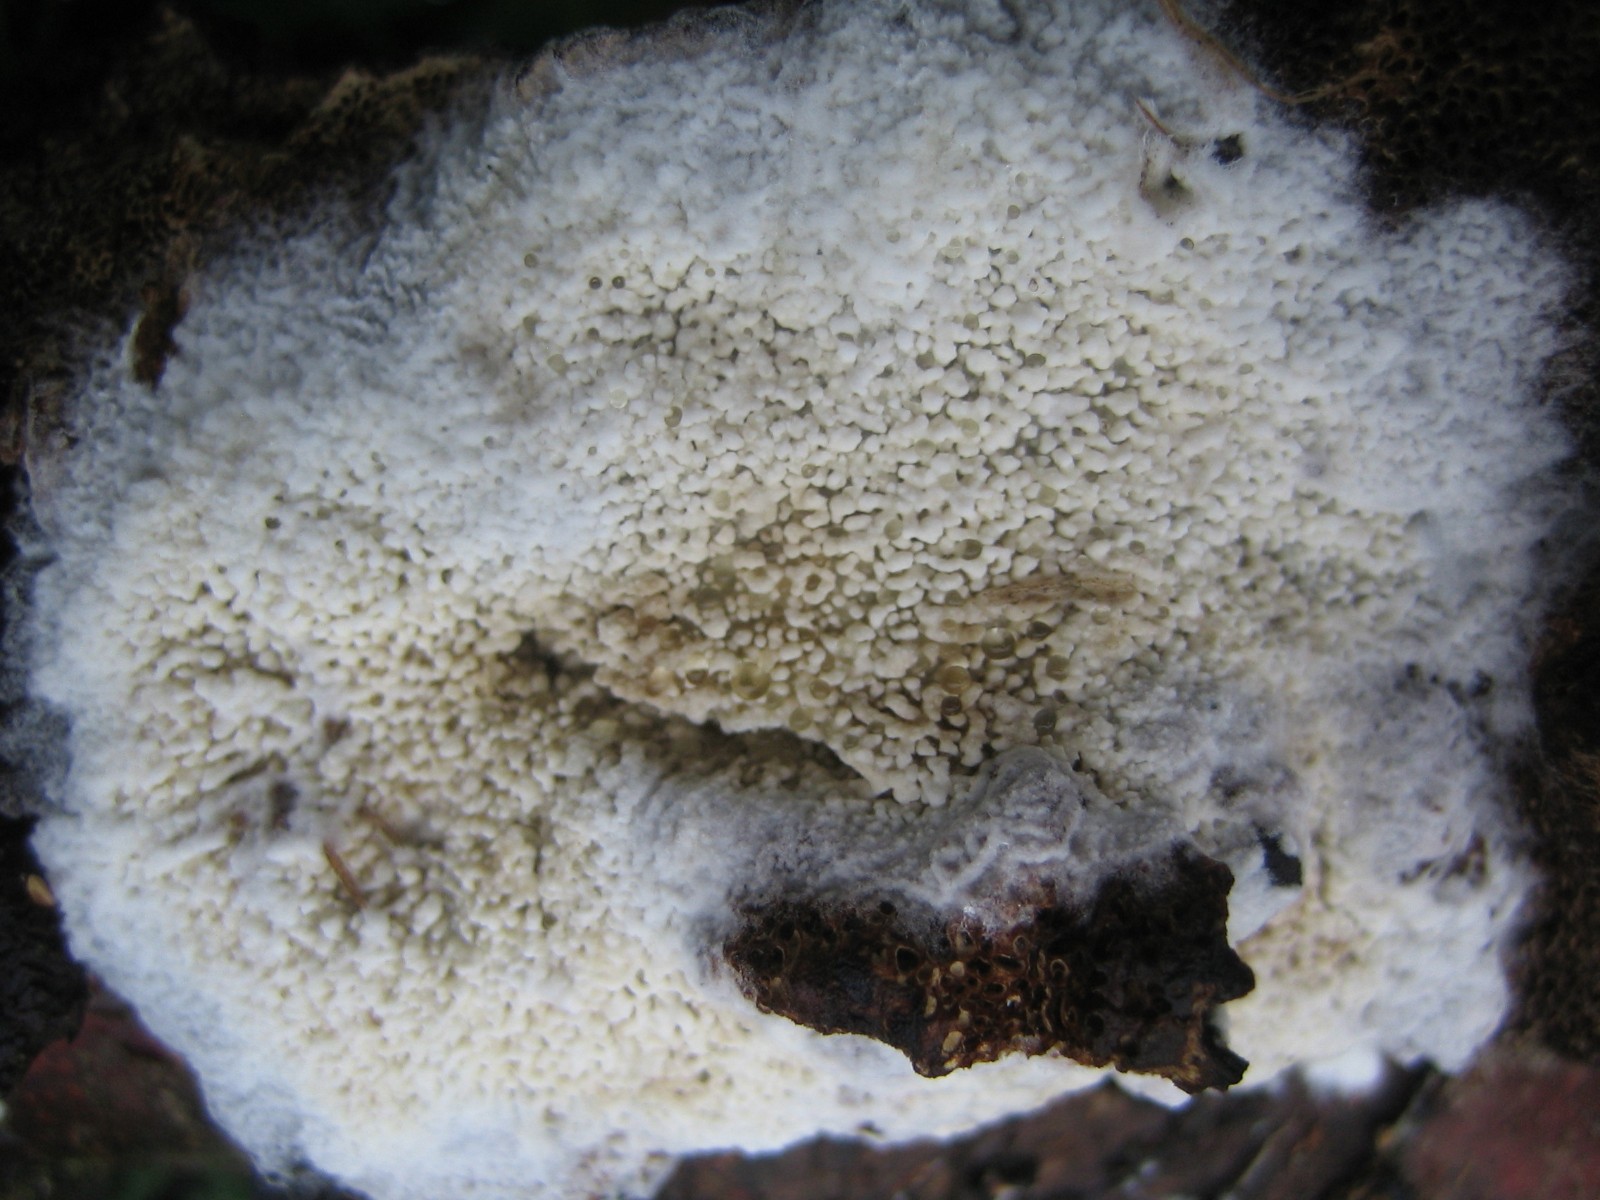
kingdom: Fungi
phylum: Basidiomycota
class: Agaricomycetes
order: Hymenochaetales
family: Schizoporaceae
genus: Xylodon
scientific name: Xylodon radula
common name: grovtandet kalkskind
